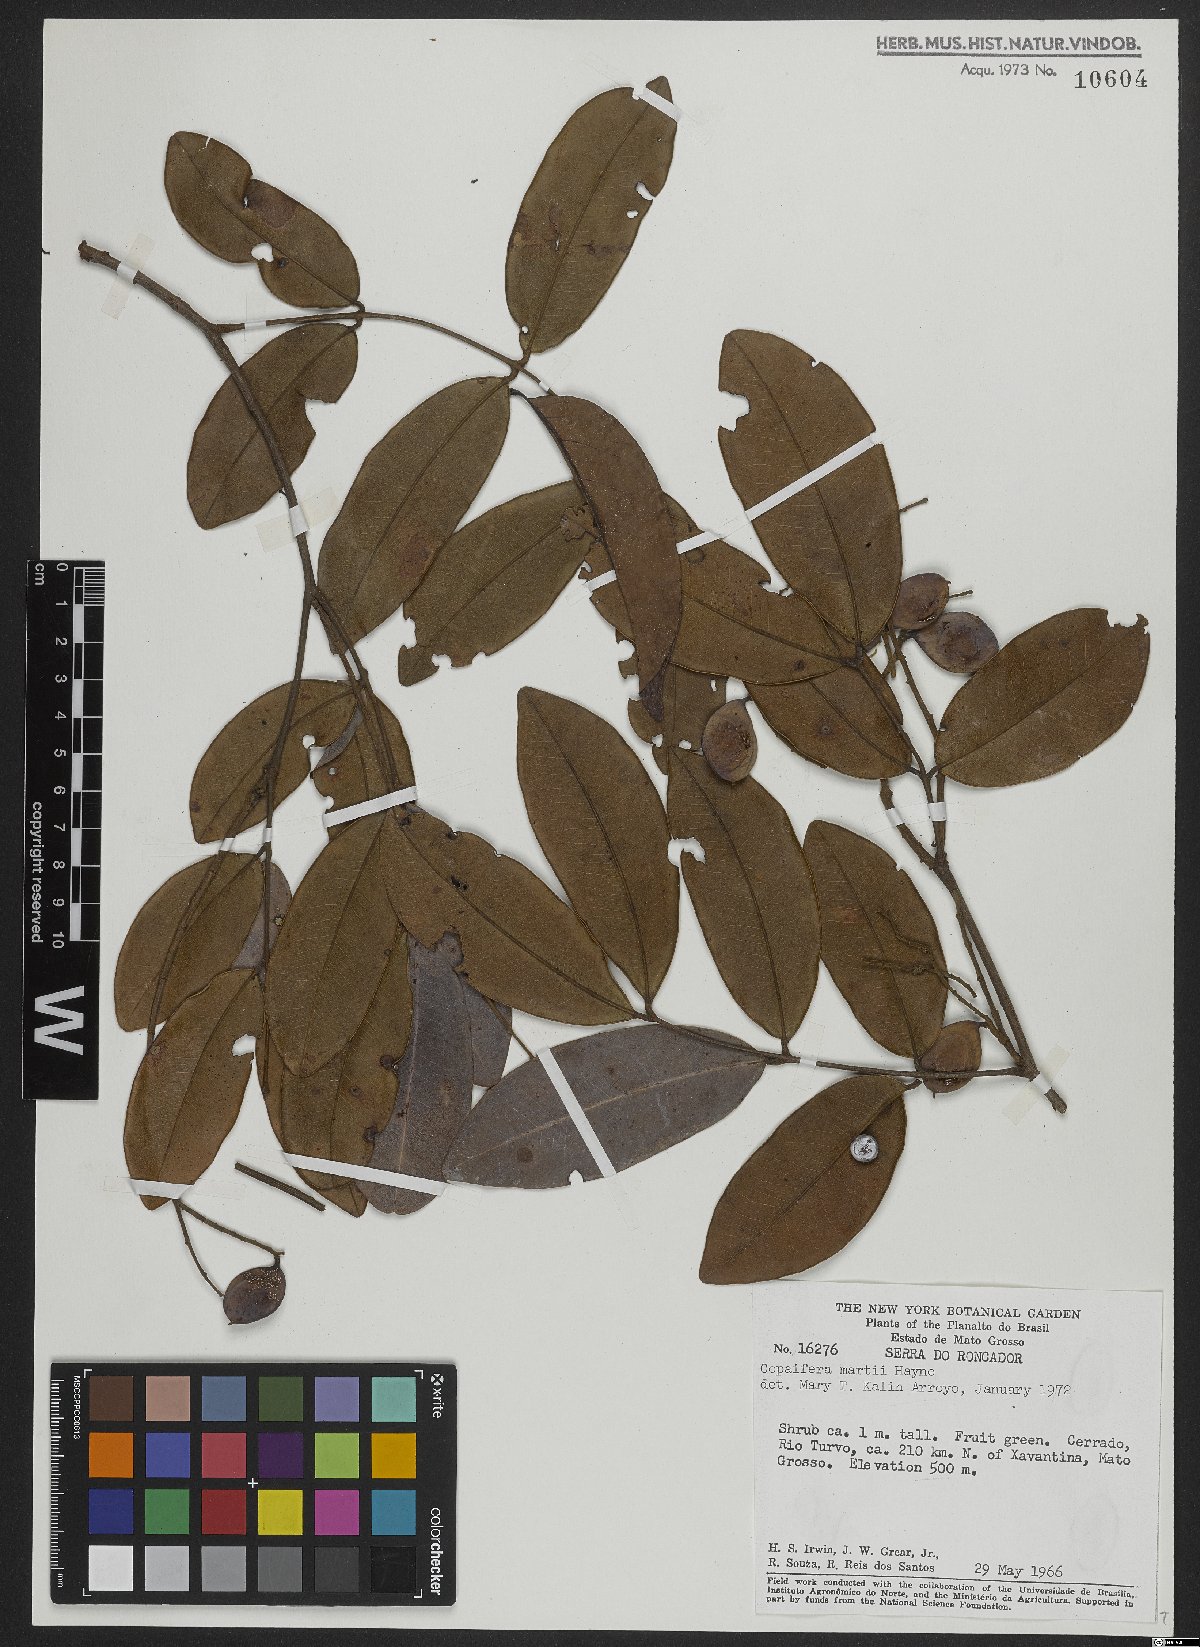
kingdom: Plantae
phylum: Tracheophyta
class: Magnoliopsida
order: Fabales
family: Fabaceae
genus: Copaifera
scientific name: Copaifera martii
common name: Copaiba
